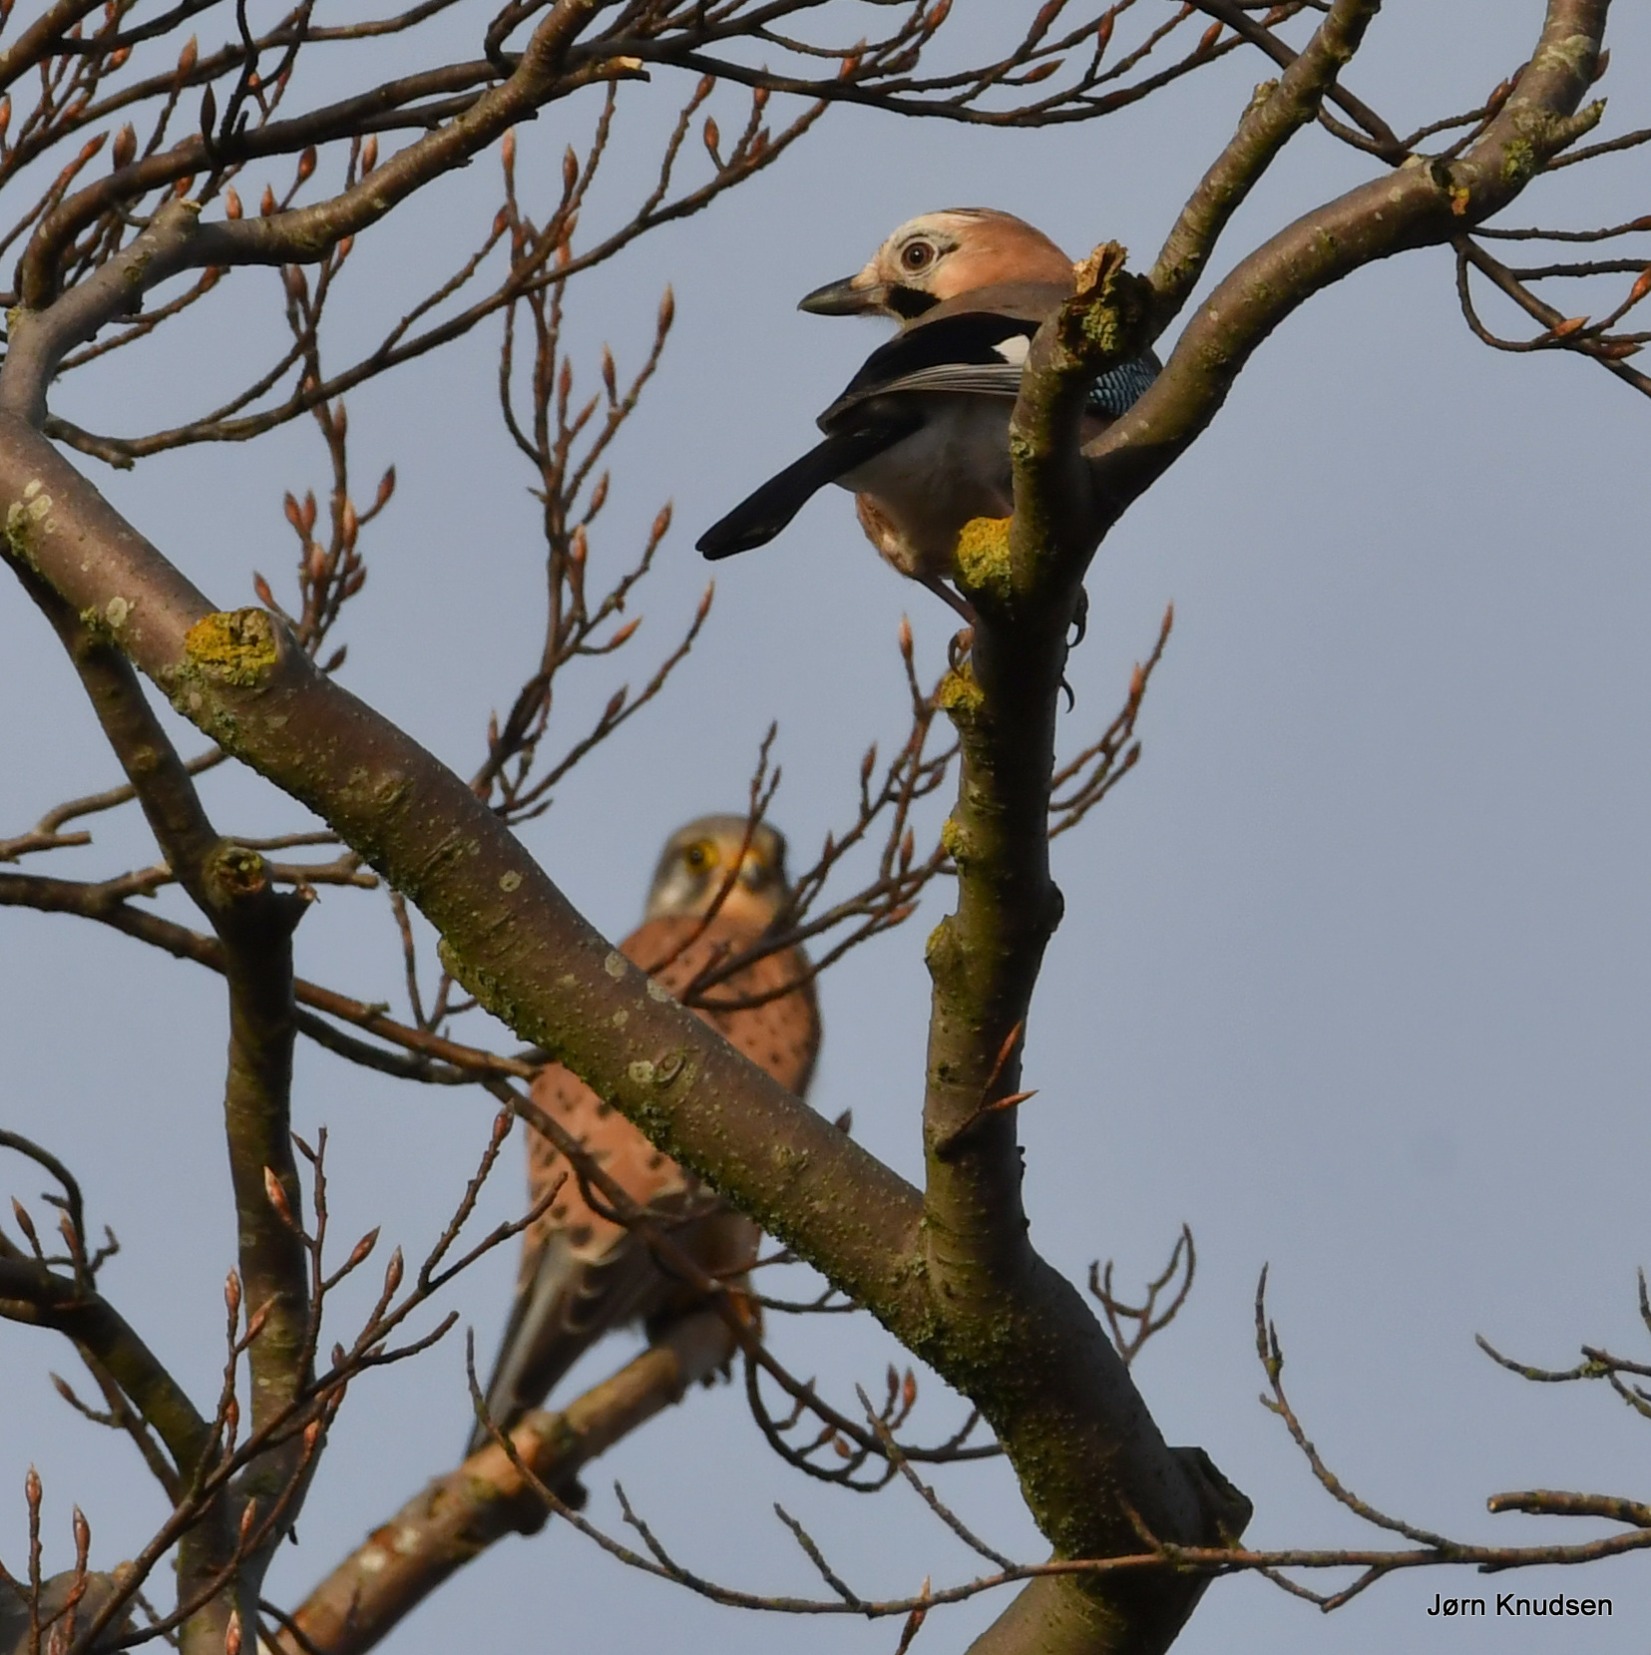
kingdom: Animalia
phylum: Chordata
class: Aves
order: Falconiformes
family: Falconidae
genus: Falco
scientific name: Falco tinnunculus
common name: Tårnfalk
